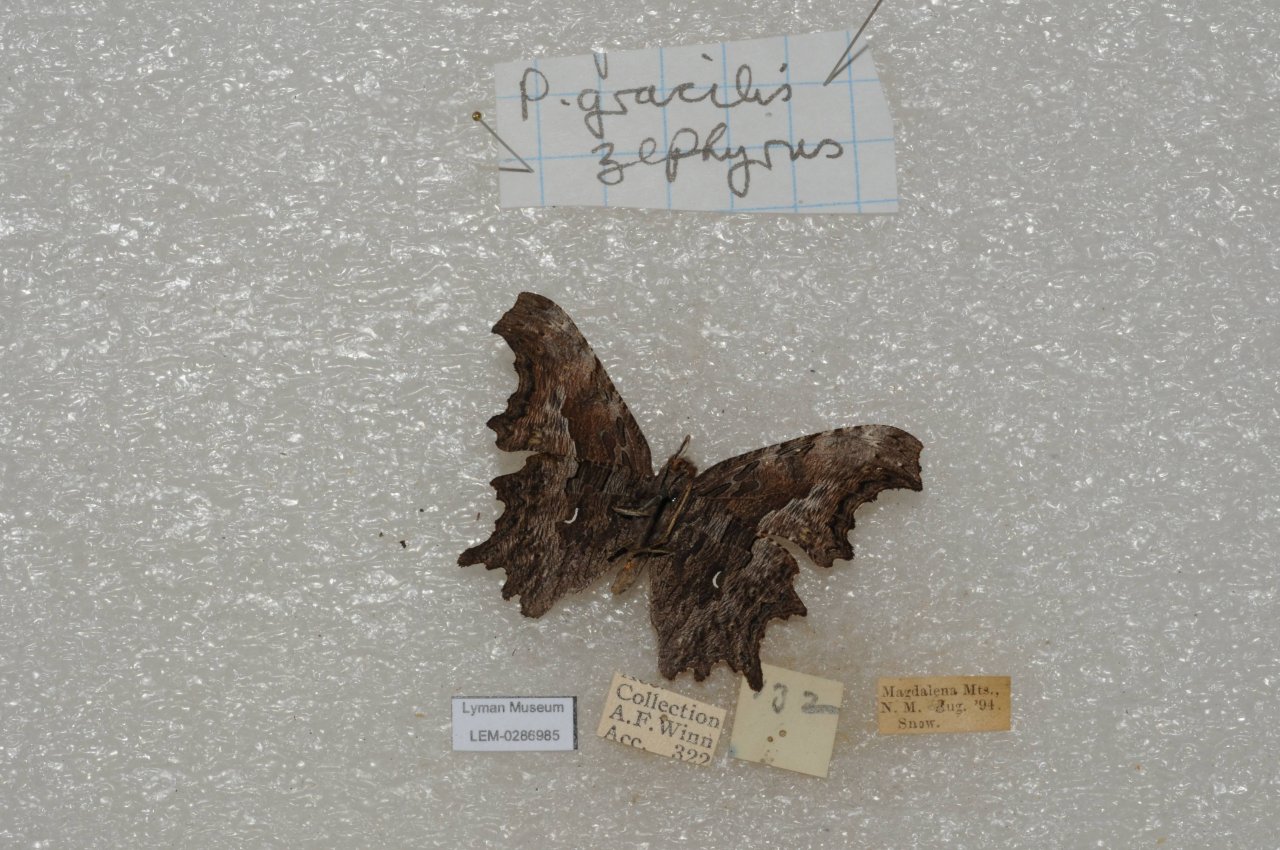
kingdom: Animalia
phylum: Arthropoda
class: Insecta
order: Lepidoptera
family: Nymphalidae
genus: Polygonia
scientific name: Polygonia gracilis
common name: Hoary Comma
